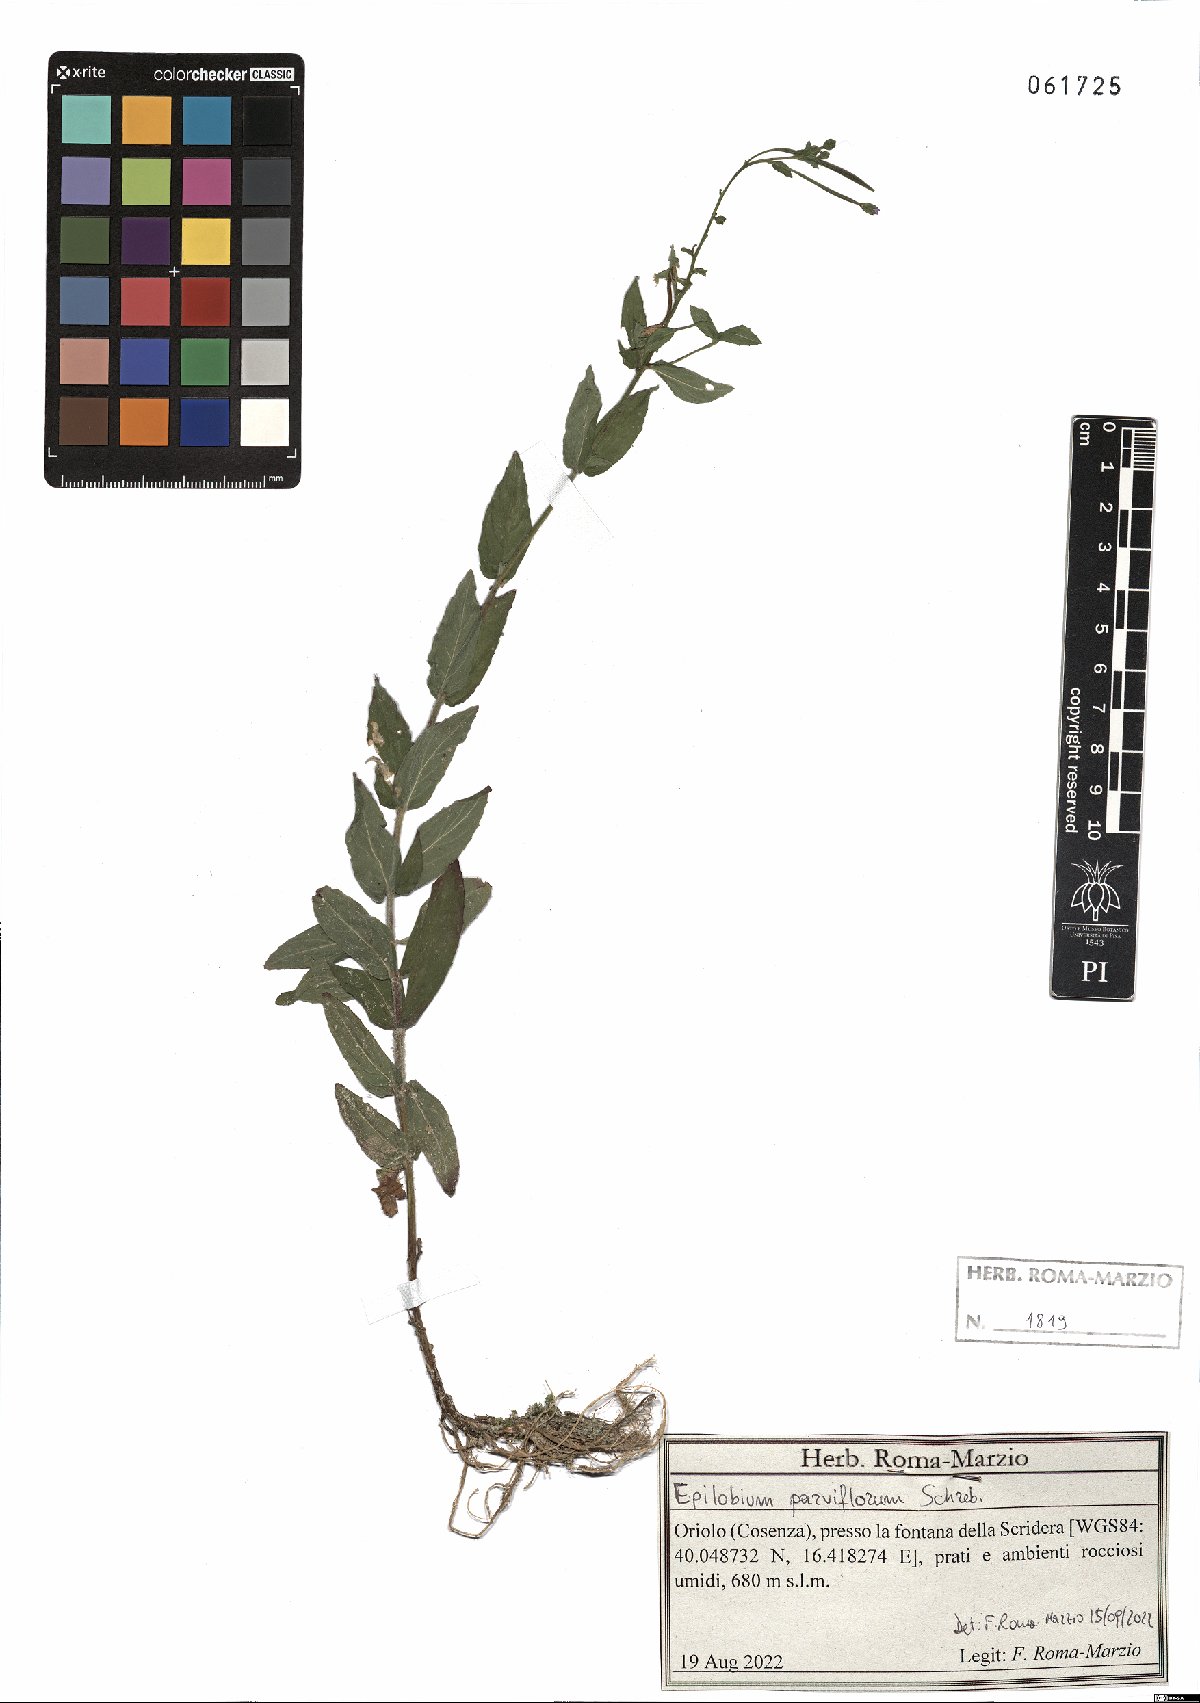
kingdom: Plantae
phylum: Tracheophyta
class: Magnoliopsida
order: Myrtales
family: Onagraceae
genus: Epilobium
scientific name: Epilobium parviflorum
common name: Hoary willowherb
